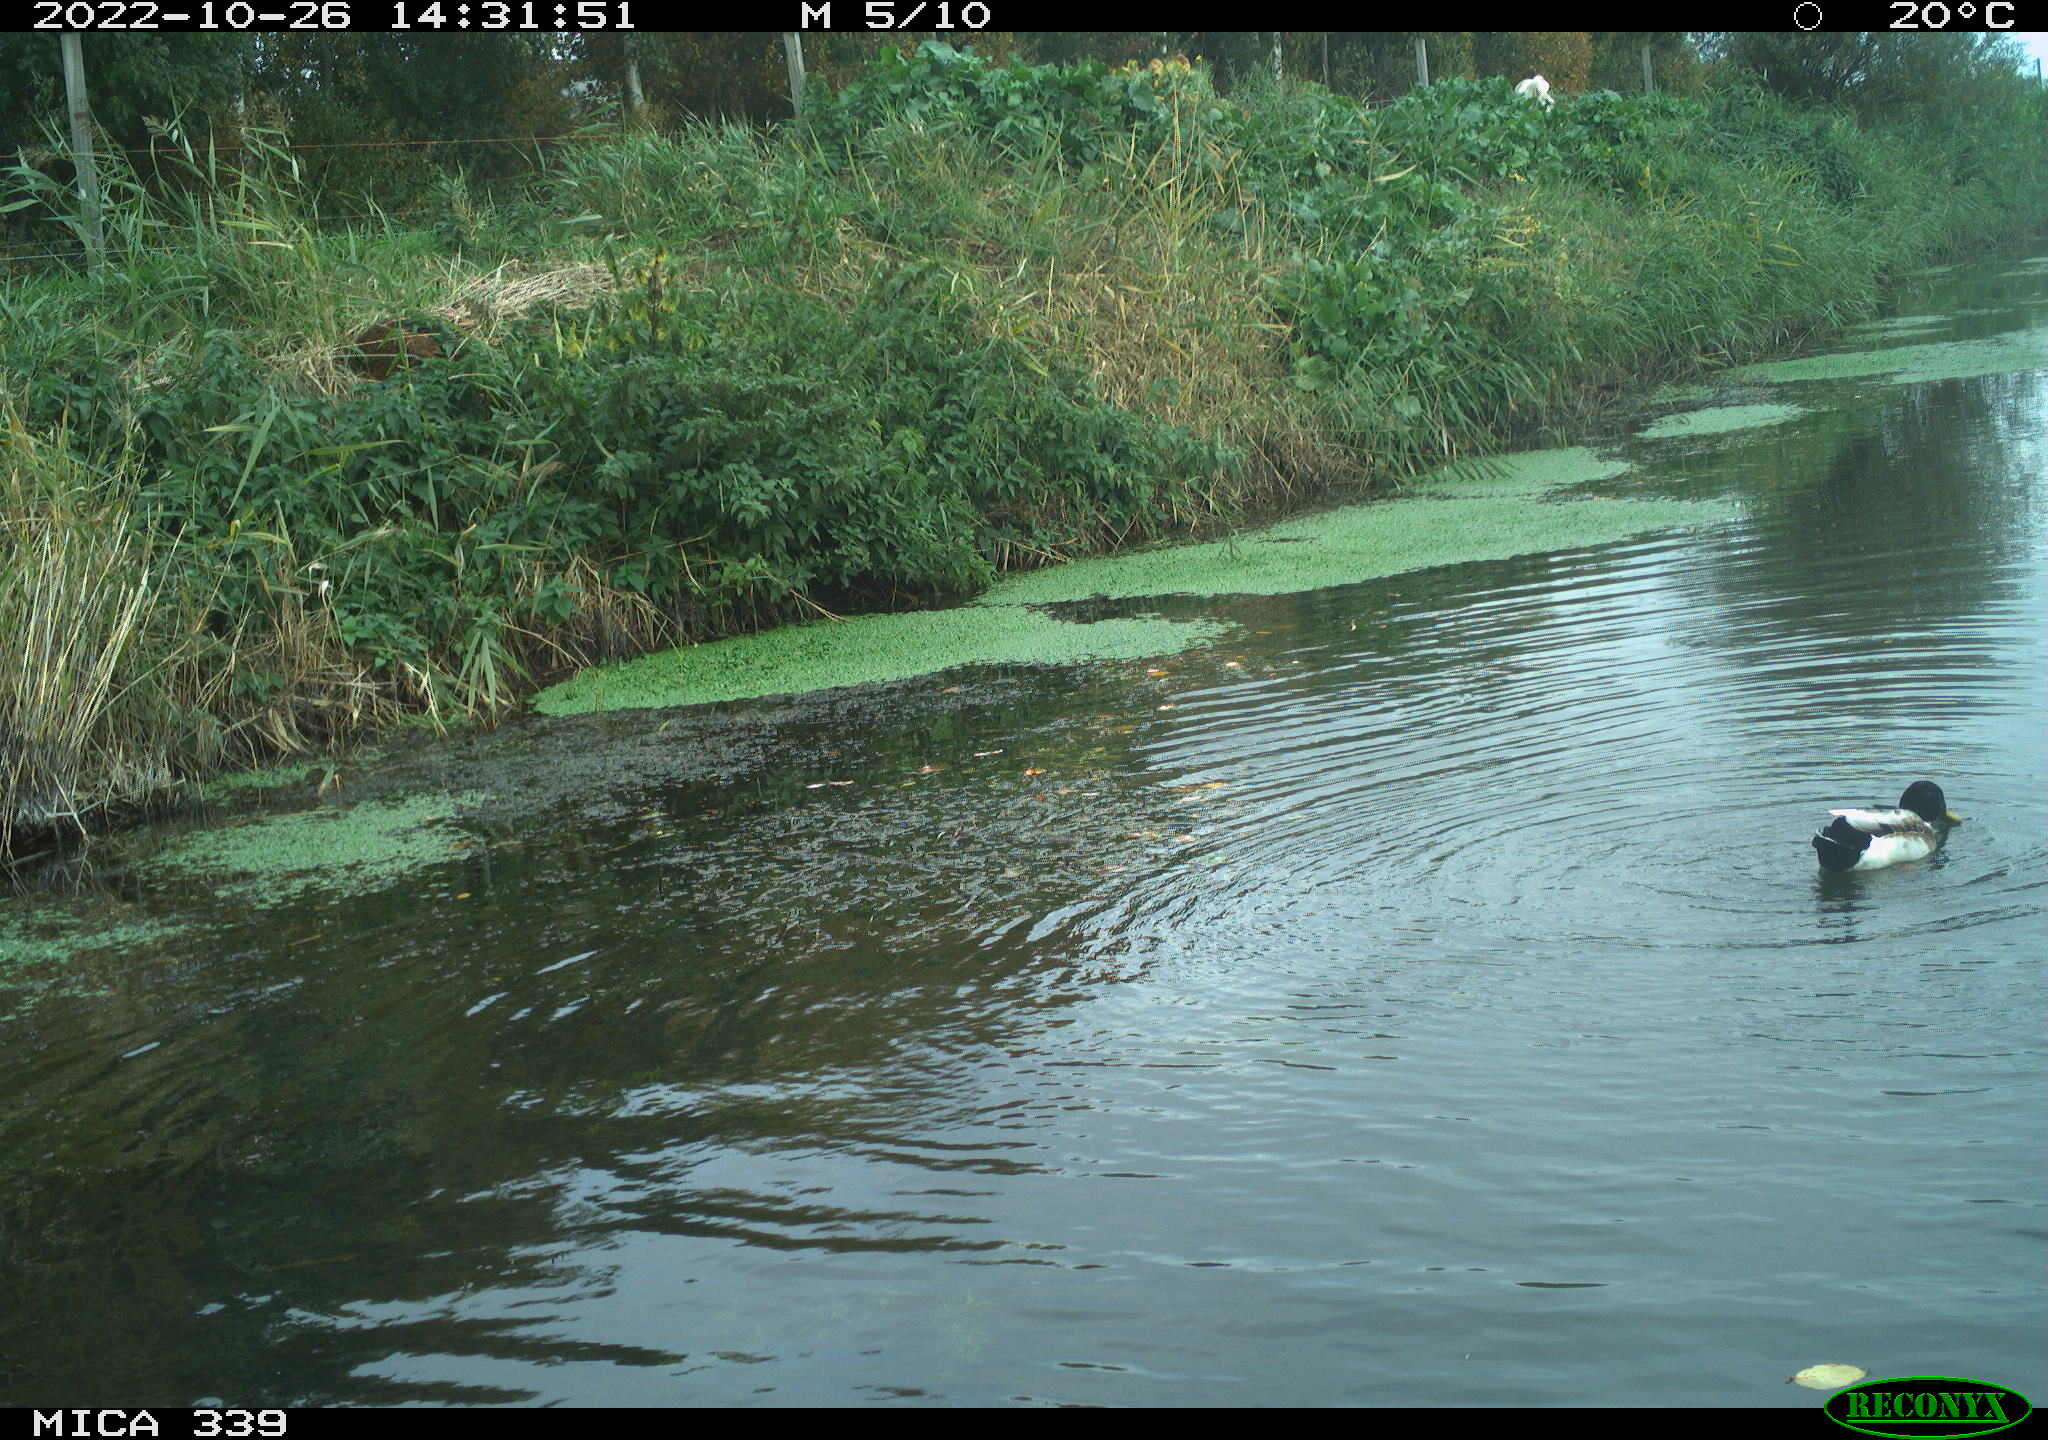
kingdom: Animalia
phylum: Chordata
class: Aves
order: Anseriformes
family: Anatidae
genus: Anas
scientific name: Anas platyrhynchos
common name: Mallard
